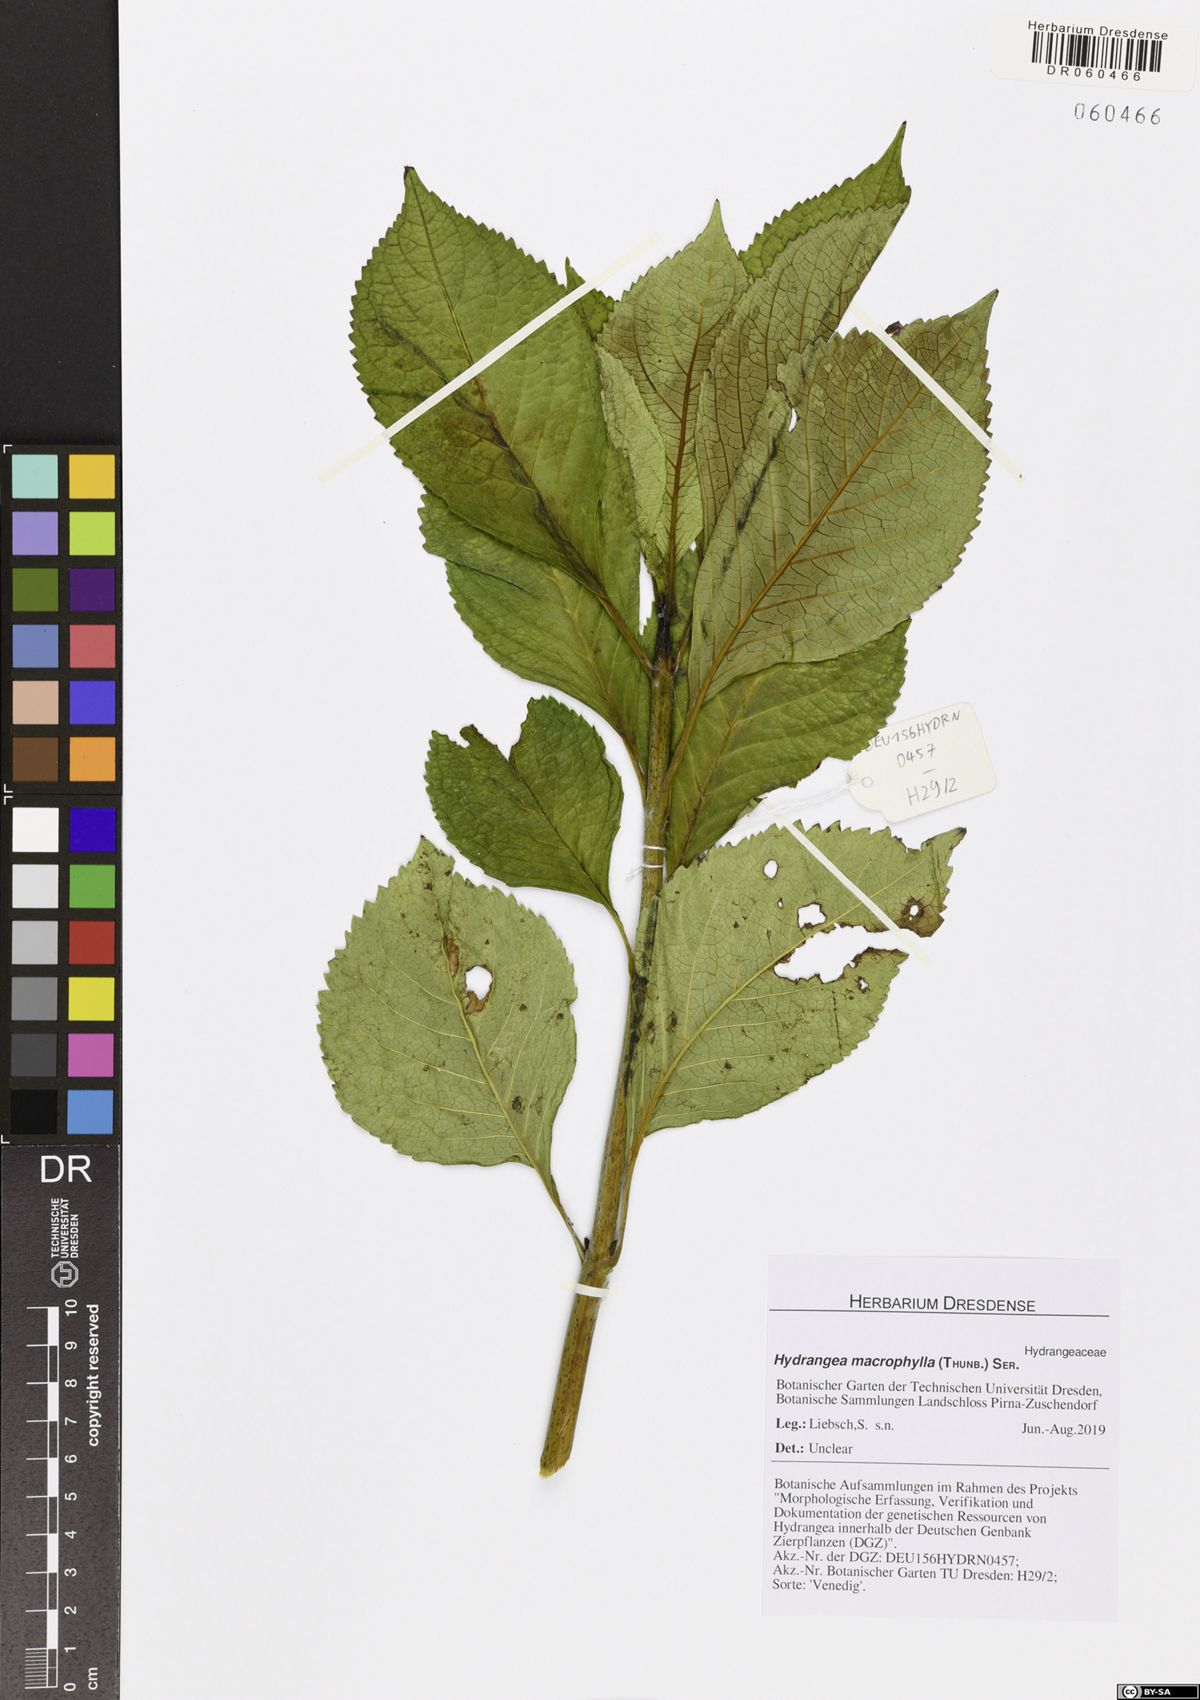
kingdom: Plantae
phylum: Tracheophyta
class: Magnoliopsida
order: Cornales
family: Hydrangeaceae
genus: Hydrangea
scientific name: Hydrangea macrophylla
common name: Hydrangea
